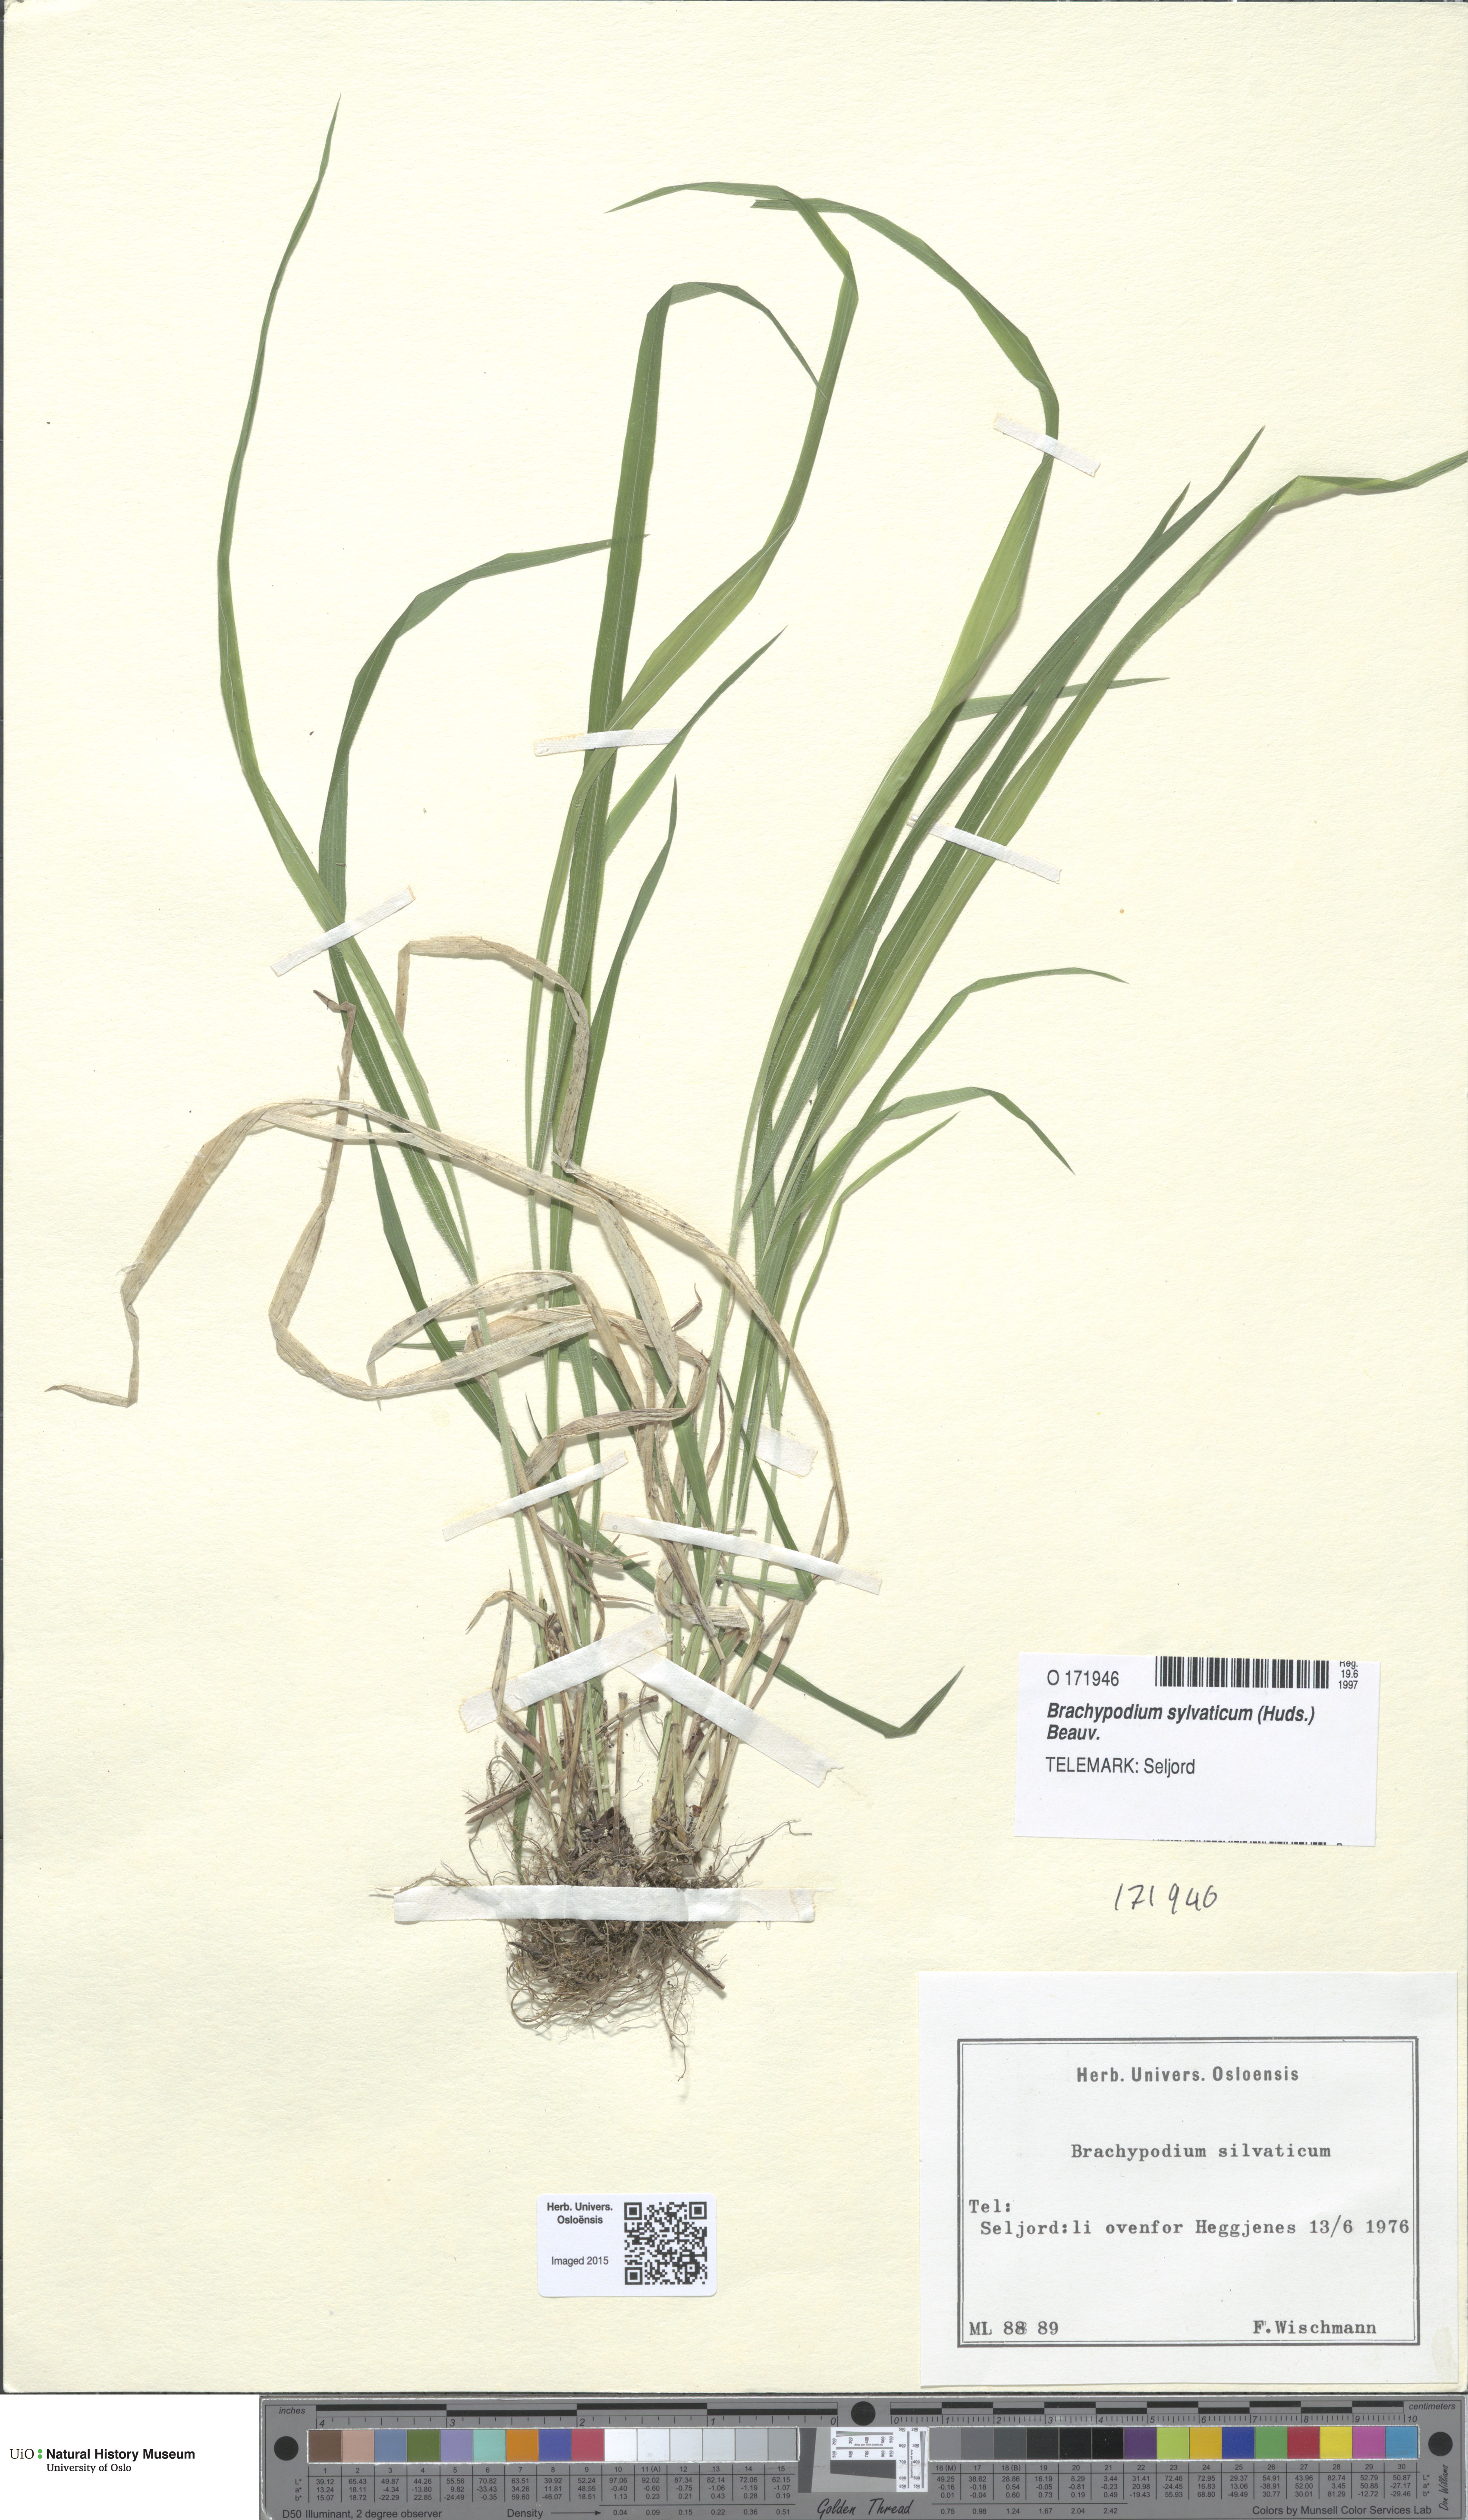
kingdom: Plantae
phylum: Tracheophyta
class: Liliopsida
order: Poales
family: Poaceae
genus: Brachypodium
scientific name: Brachypodium sylvaticum
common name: False-brome
